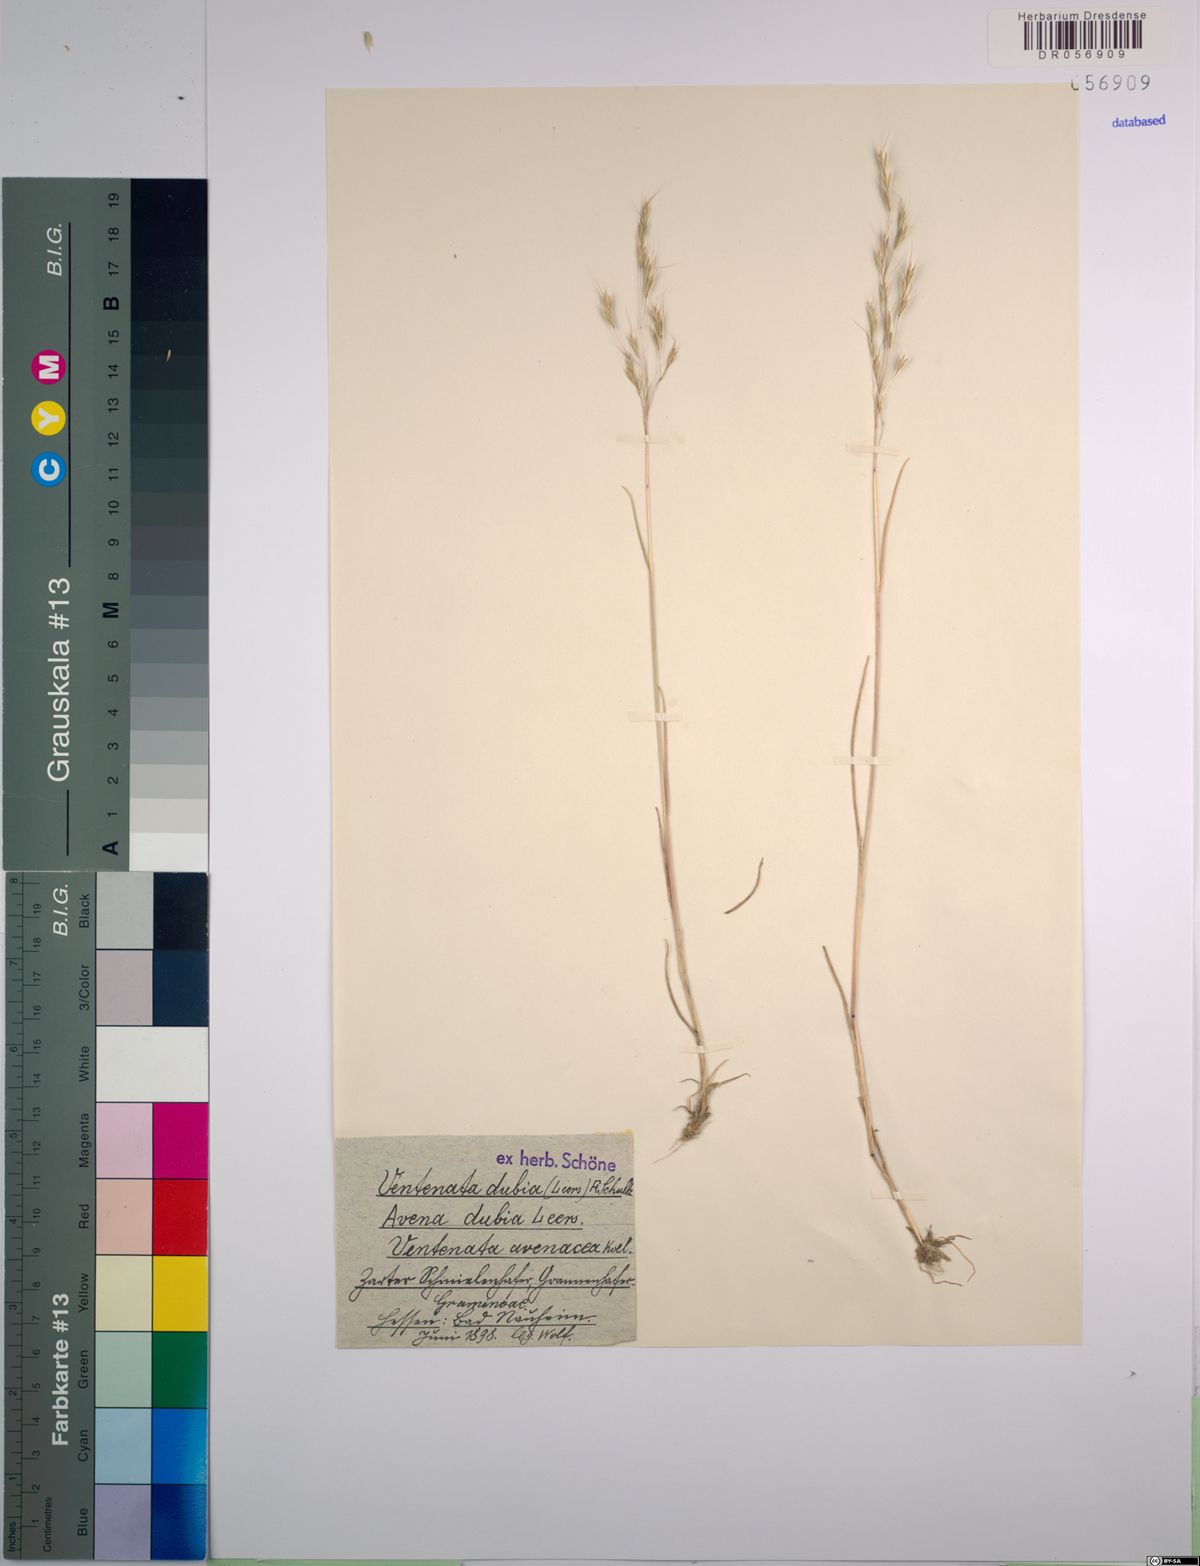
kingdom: Plantae
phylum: Tracheophyta
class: Liliopsida
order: Poales
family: Poaceae
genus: Ventenata
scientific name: Ventenata dubia
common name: North africa grass
